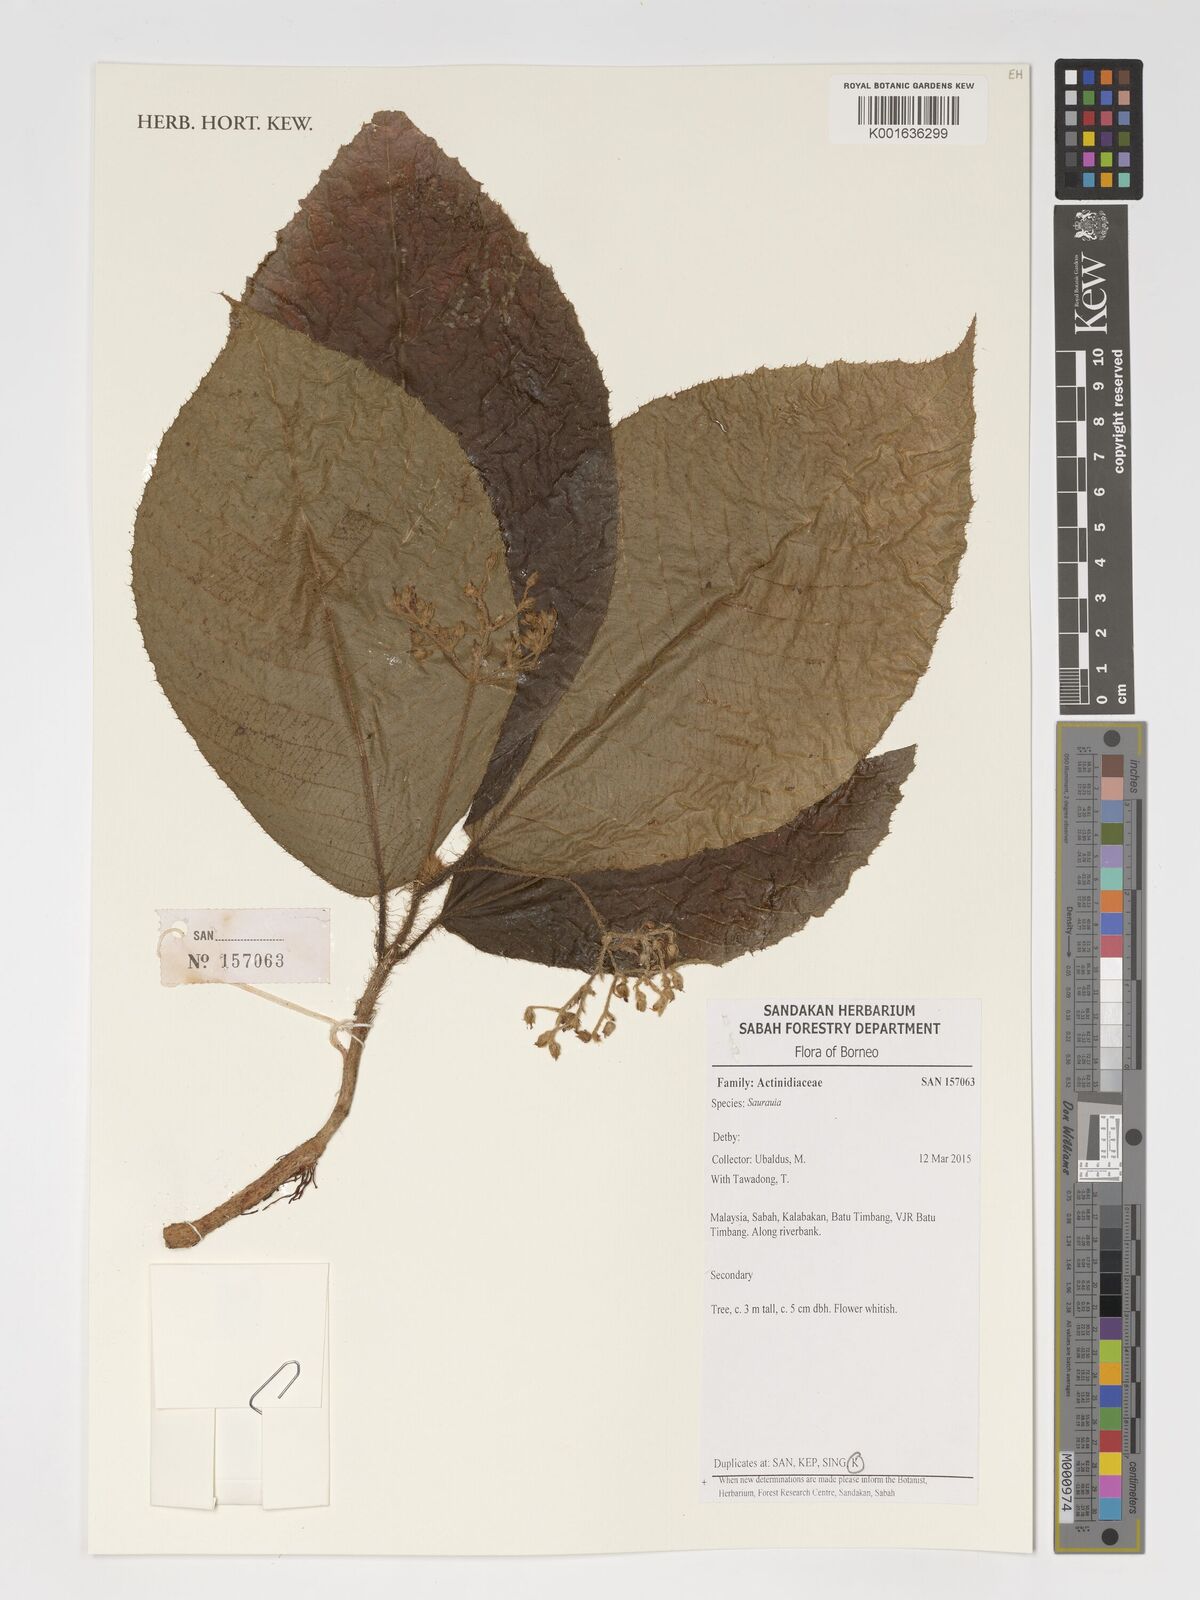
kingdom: Plantae
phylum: Tracheophyta
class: Magnoliopsida
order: Ericales
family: Actinidiaceae
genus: Saurauia
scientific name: Saurauia
